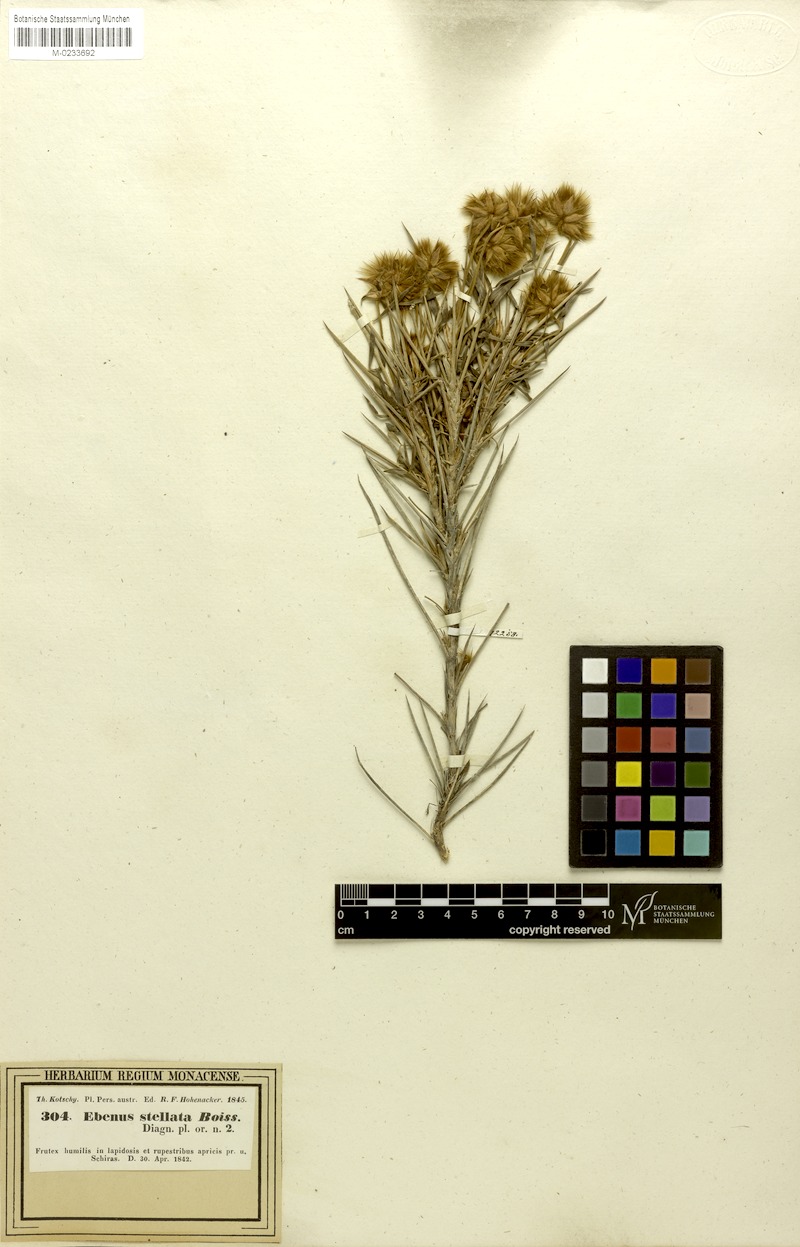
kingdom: Plantae
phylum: Tracheophyta
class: Magnoliopsida
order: Fabales
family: Fabaceae
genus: Ebenus
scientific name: Ebenus stellata
